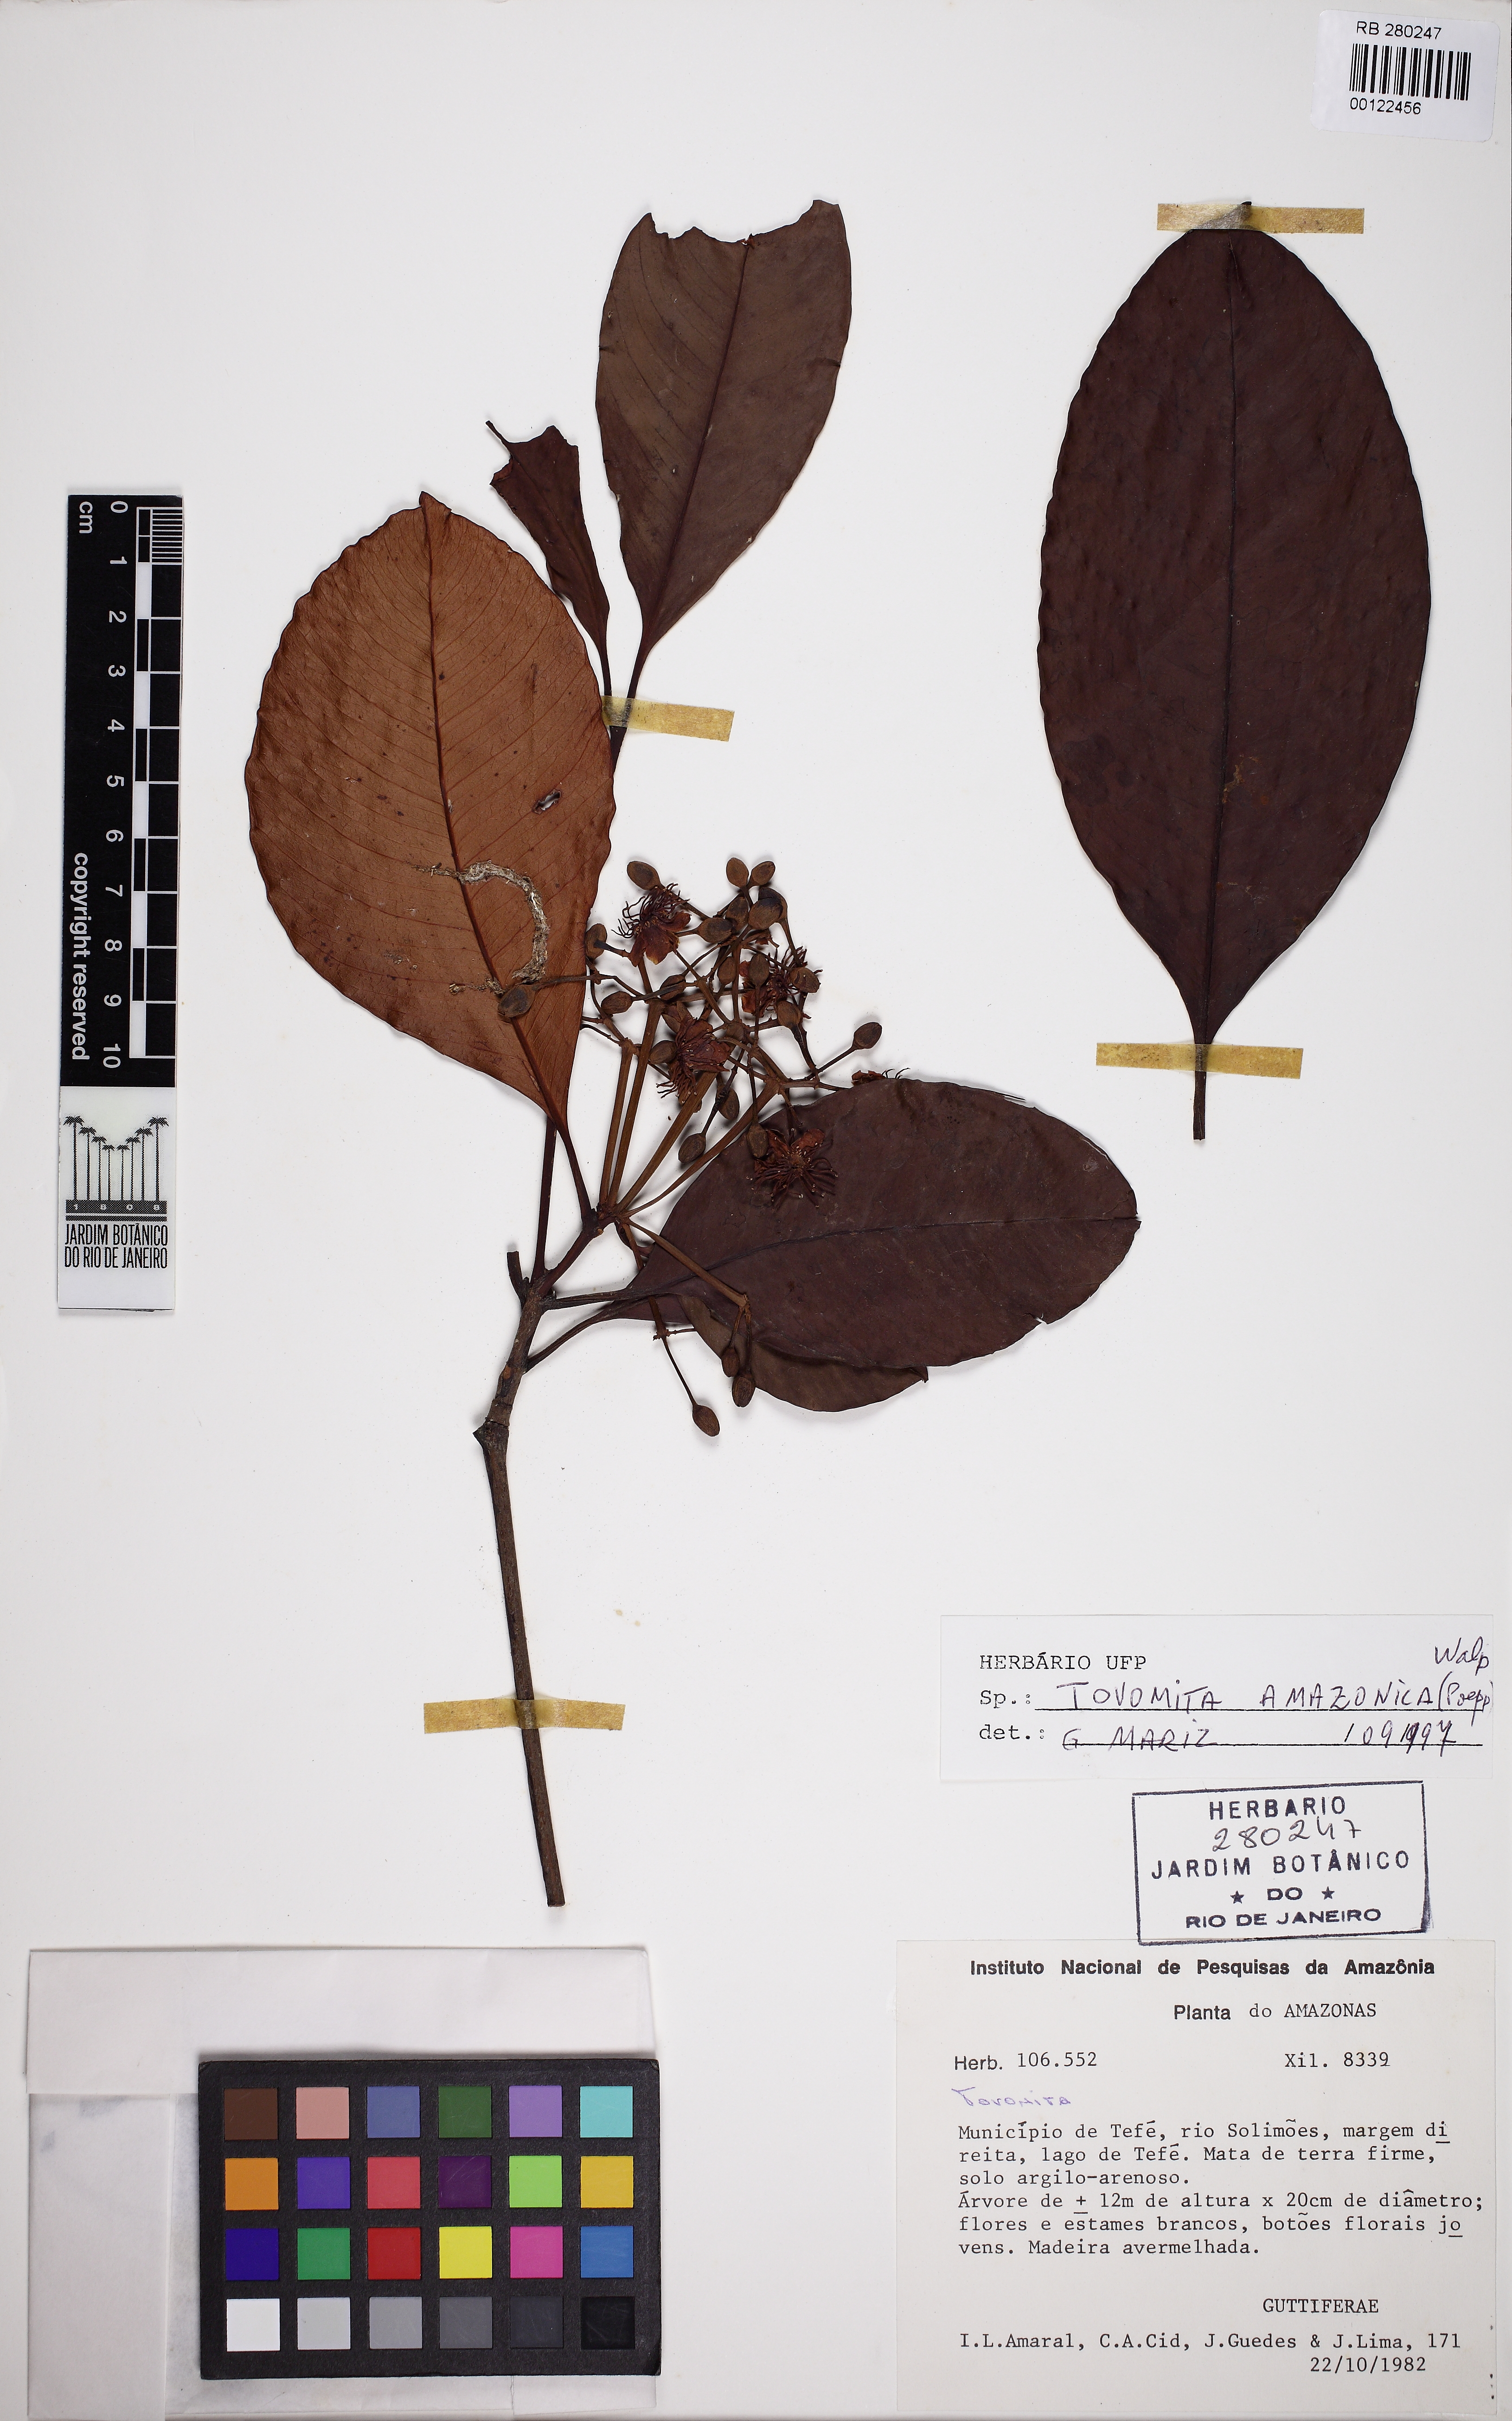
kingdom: Plantae
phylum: Tracheophyta
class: Magnoliopsida
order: Malpighiales
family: Clusiaceae
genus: Tovomita
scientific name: Tovomita amazonica
